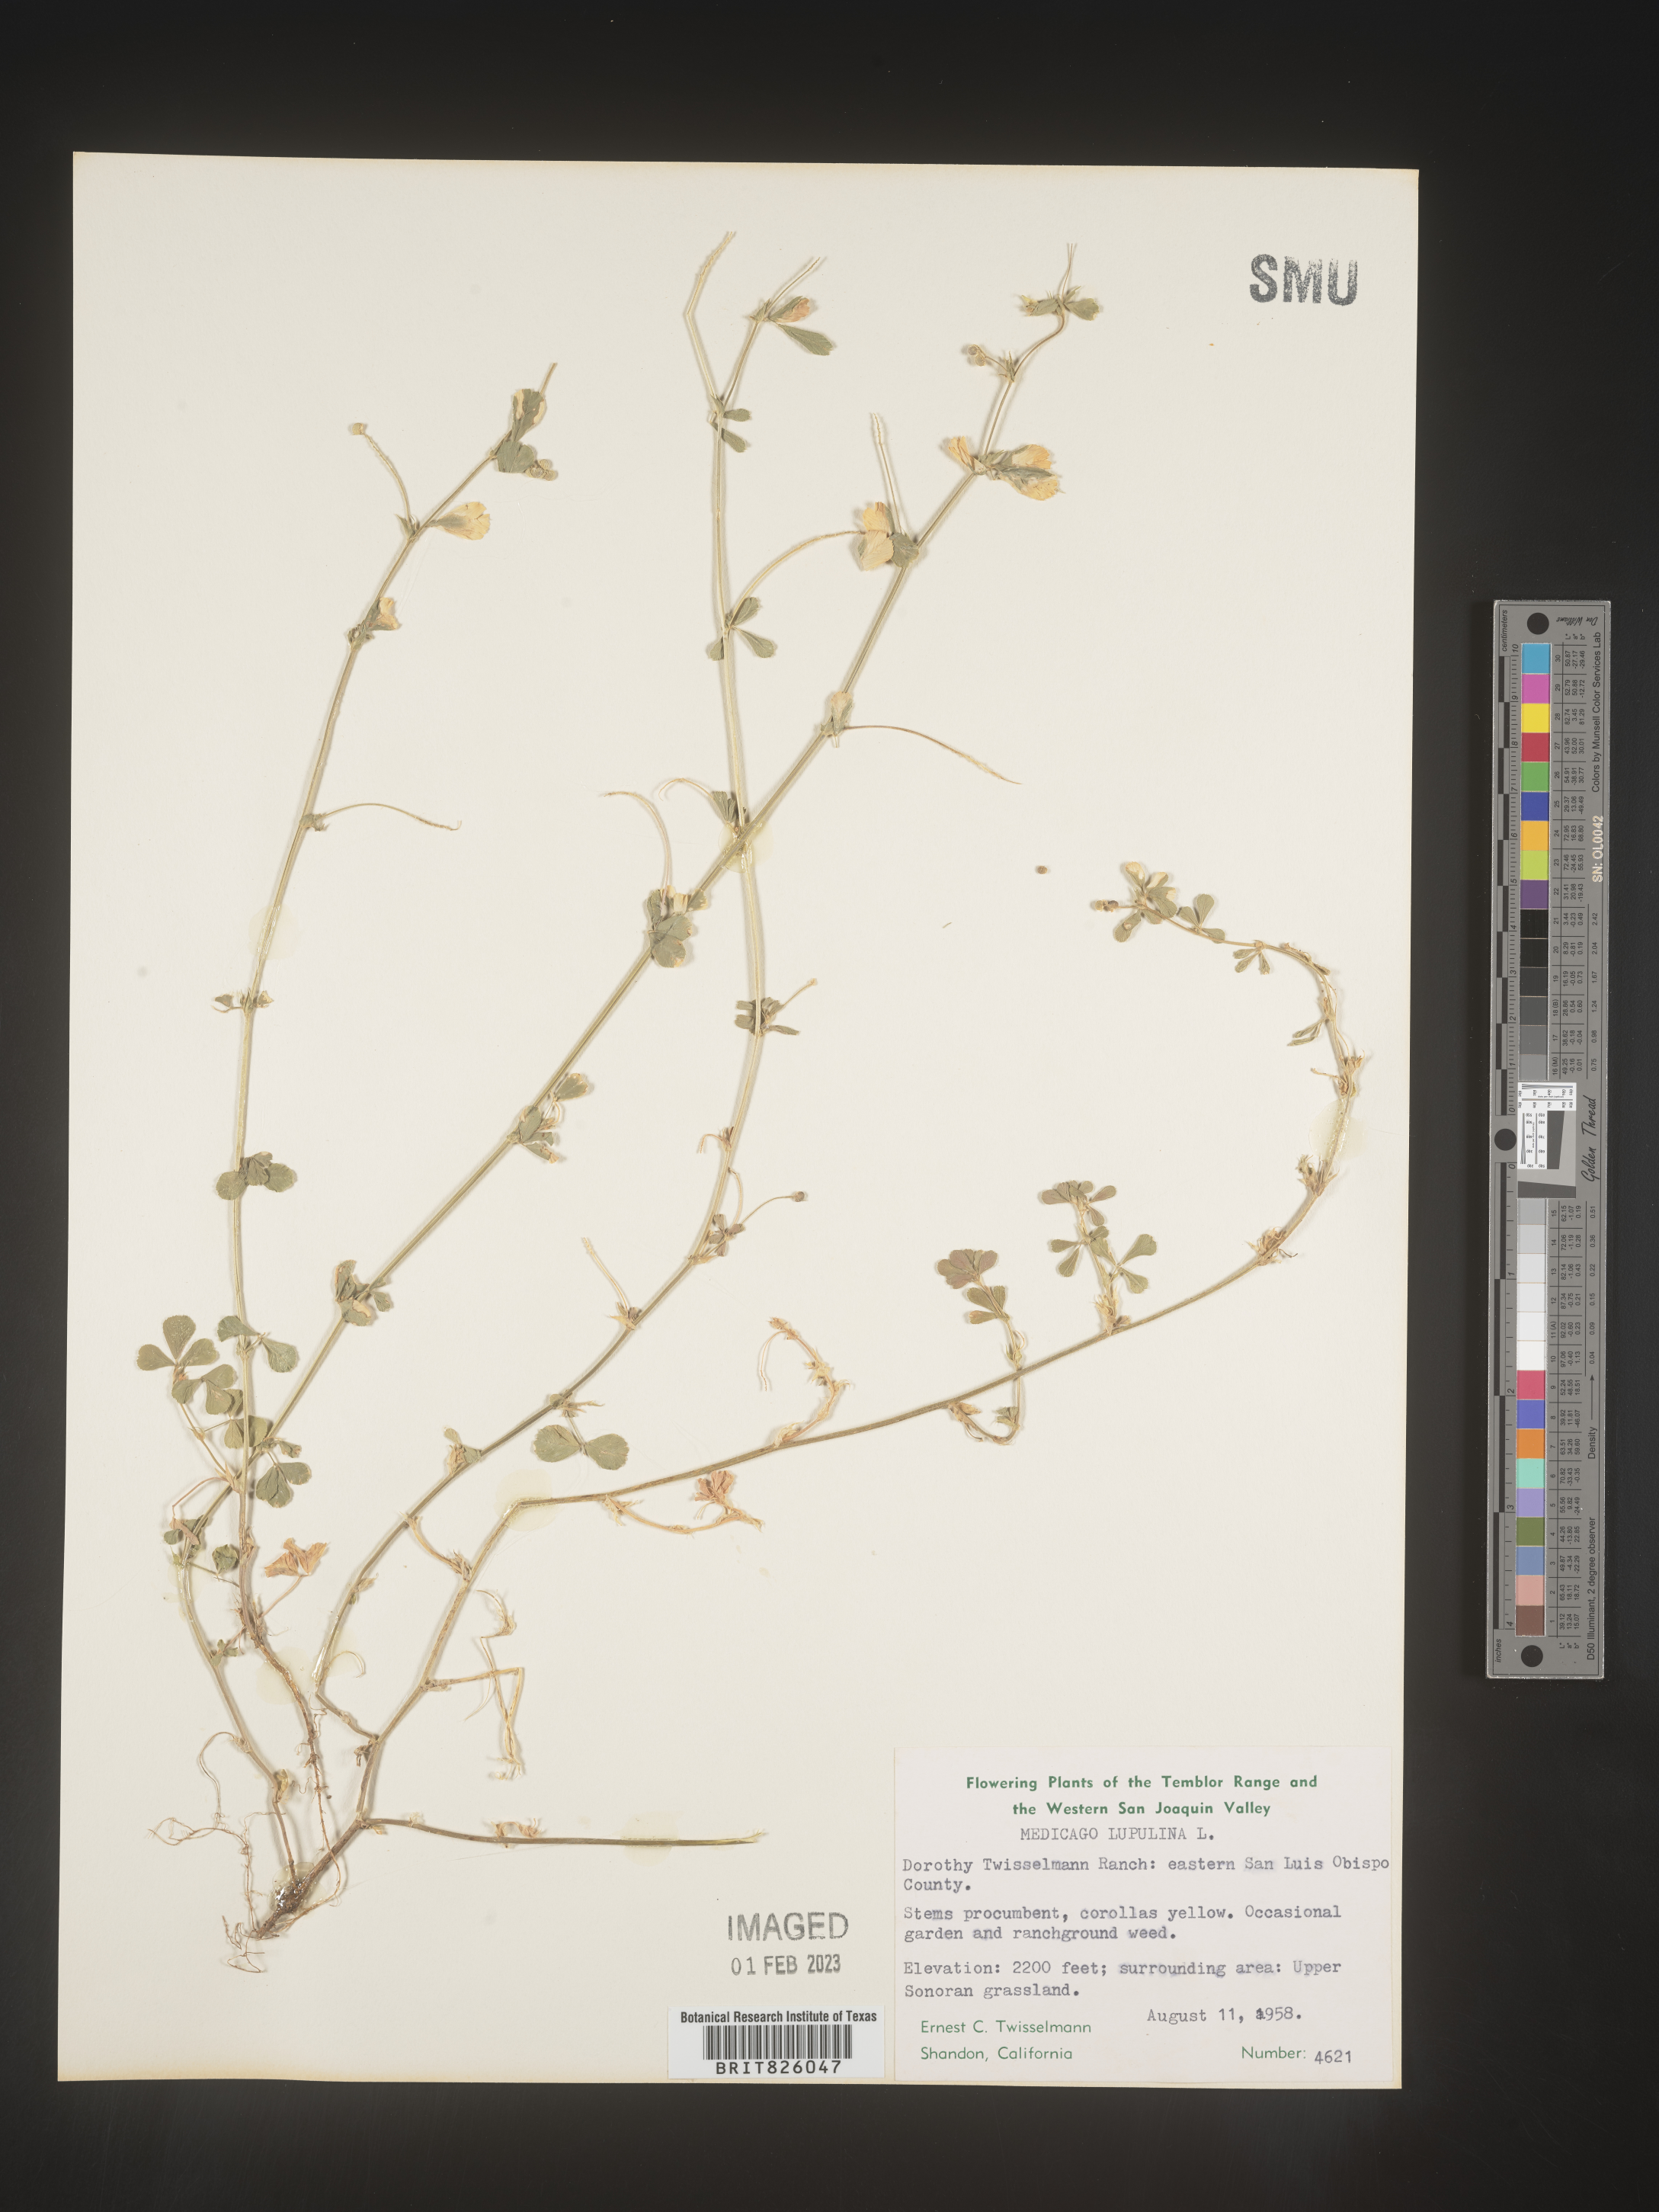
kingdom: Plantae
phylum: Tracheophyta
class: Magnoliopsida
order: Fabales
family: Fabaceae
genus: Medicago
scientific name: Medicago lupulina
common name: Black medick
